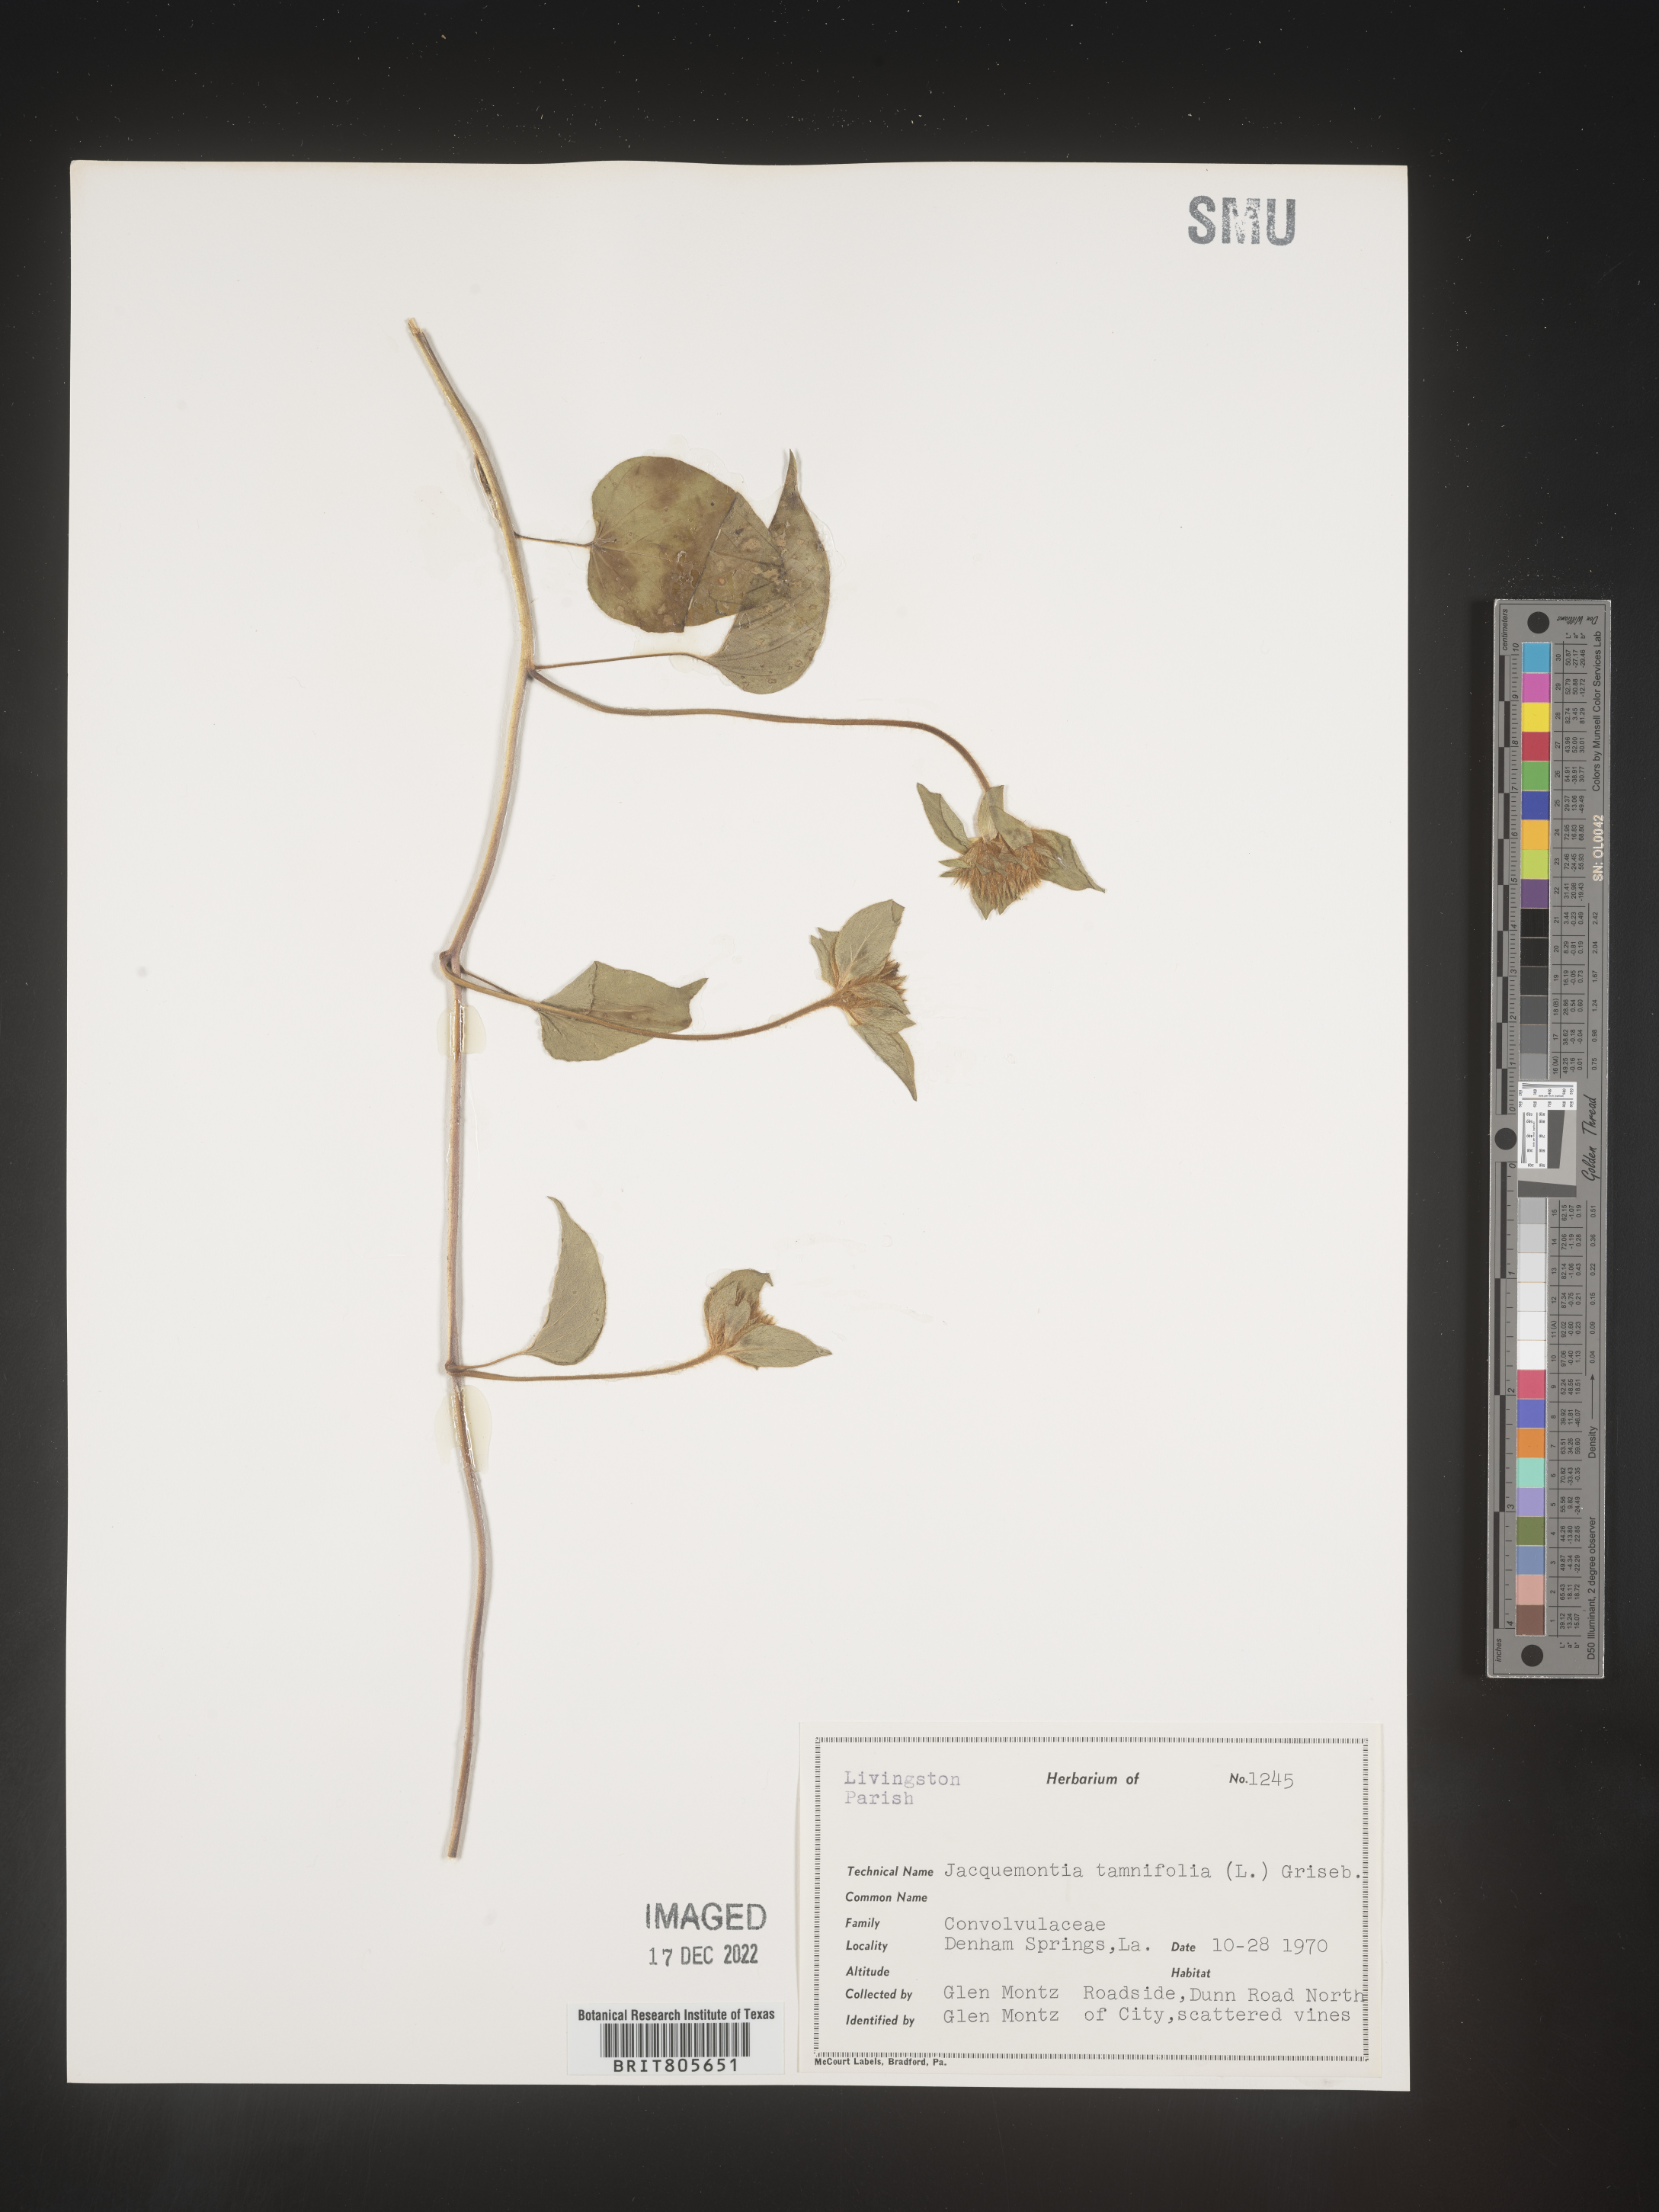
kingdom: Plantae
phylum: Tracheophyta
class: Magnoliopsida
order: Solanales
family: Convolvulaceae
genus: Jacquemontia
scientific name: Jacquemontia tamnifolia
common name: Hairy clustervine
